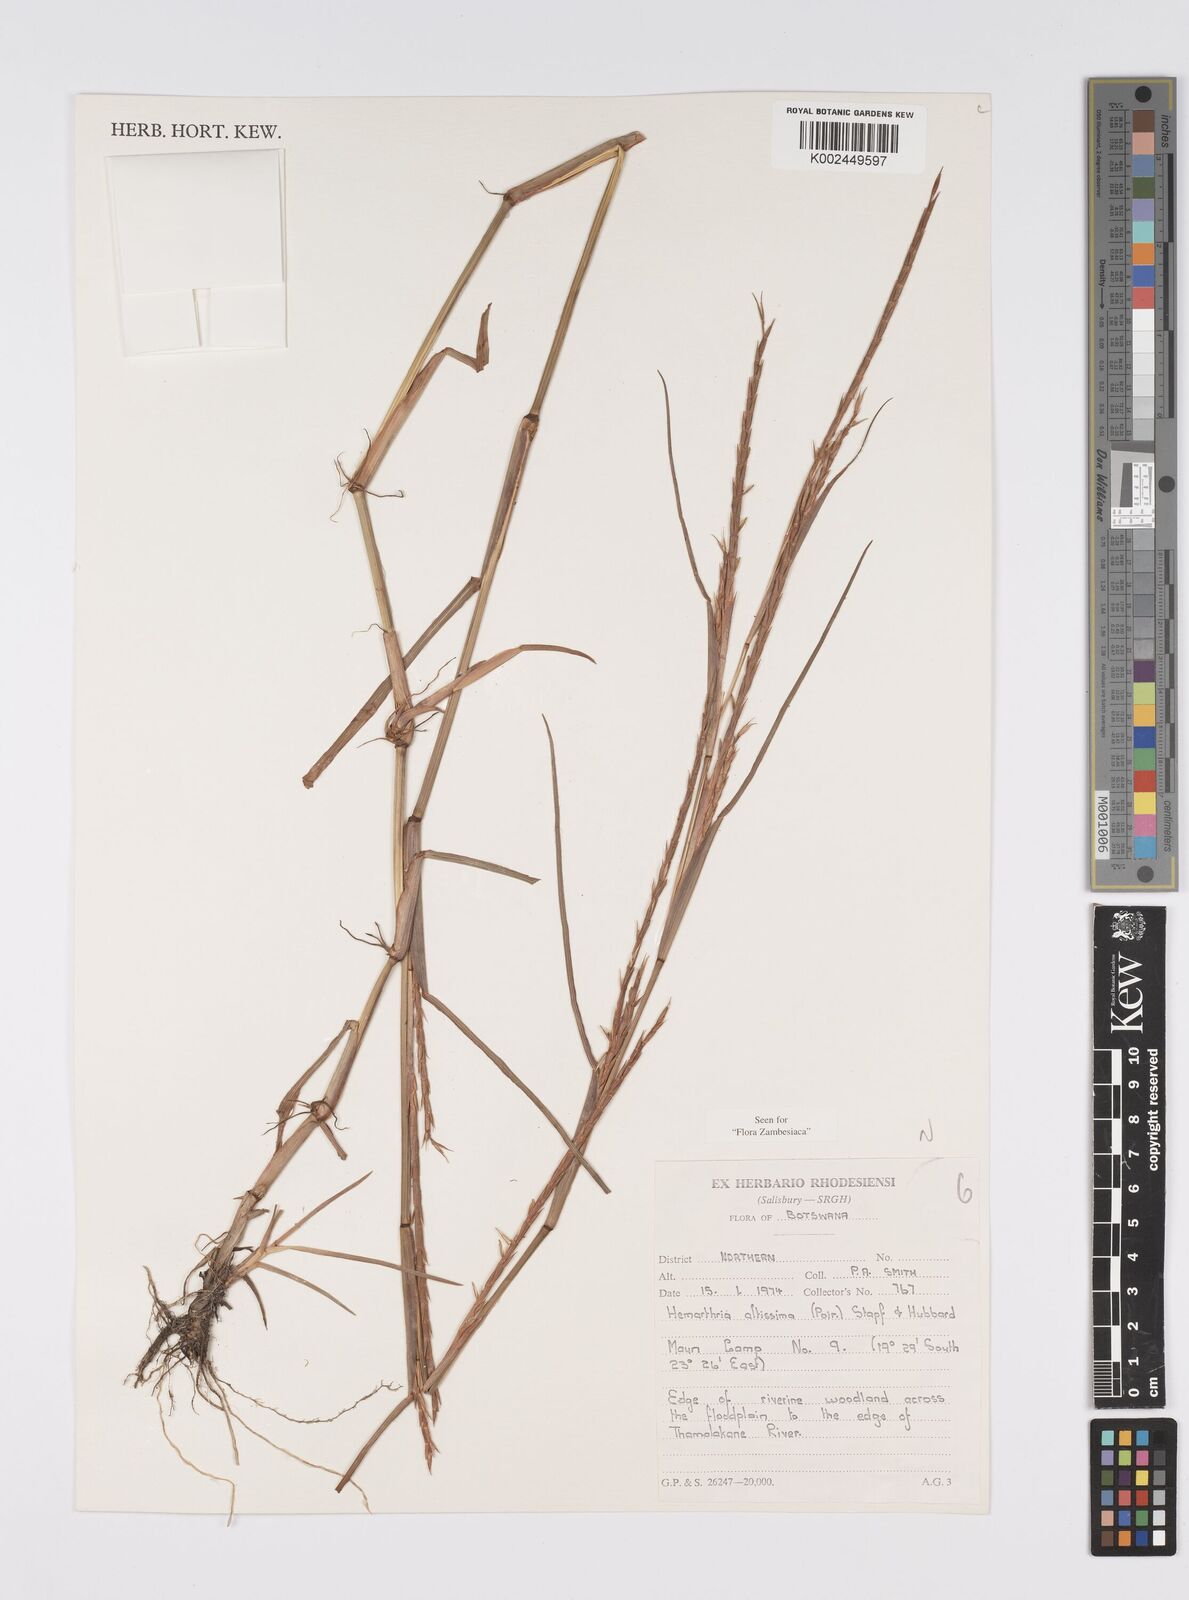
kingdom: Plantae
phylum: Tracheophyta
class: Liliopsida
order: Poales
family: Poaceae
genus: Hemarthria
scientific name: Hemarthria altissima
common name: African jointgrass
